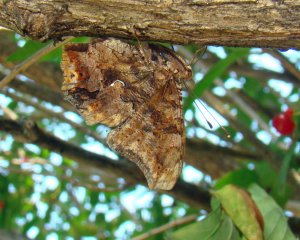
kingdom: Animalia
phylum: Arthropoda
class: Insecta
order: Lepidoptera
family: Nymphalidae
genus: Polygonia
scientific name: Polygonia comma
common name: Eastern Comma
